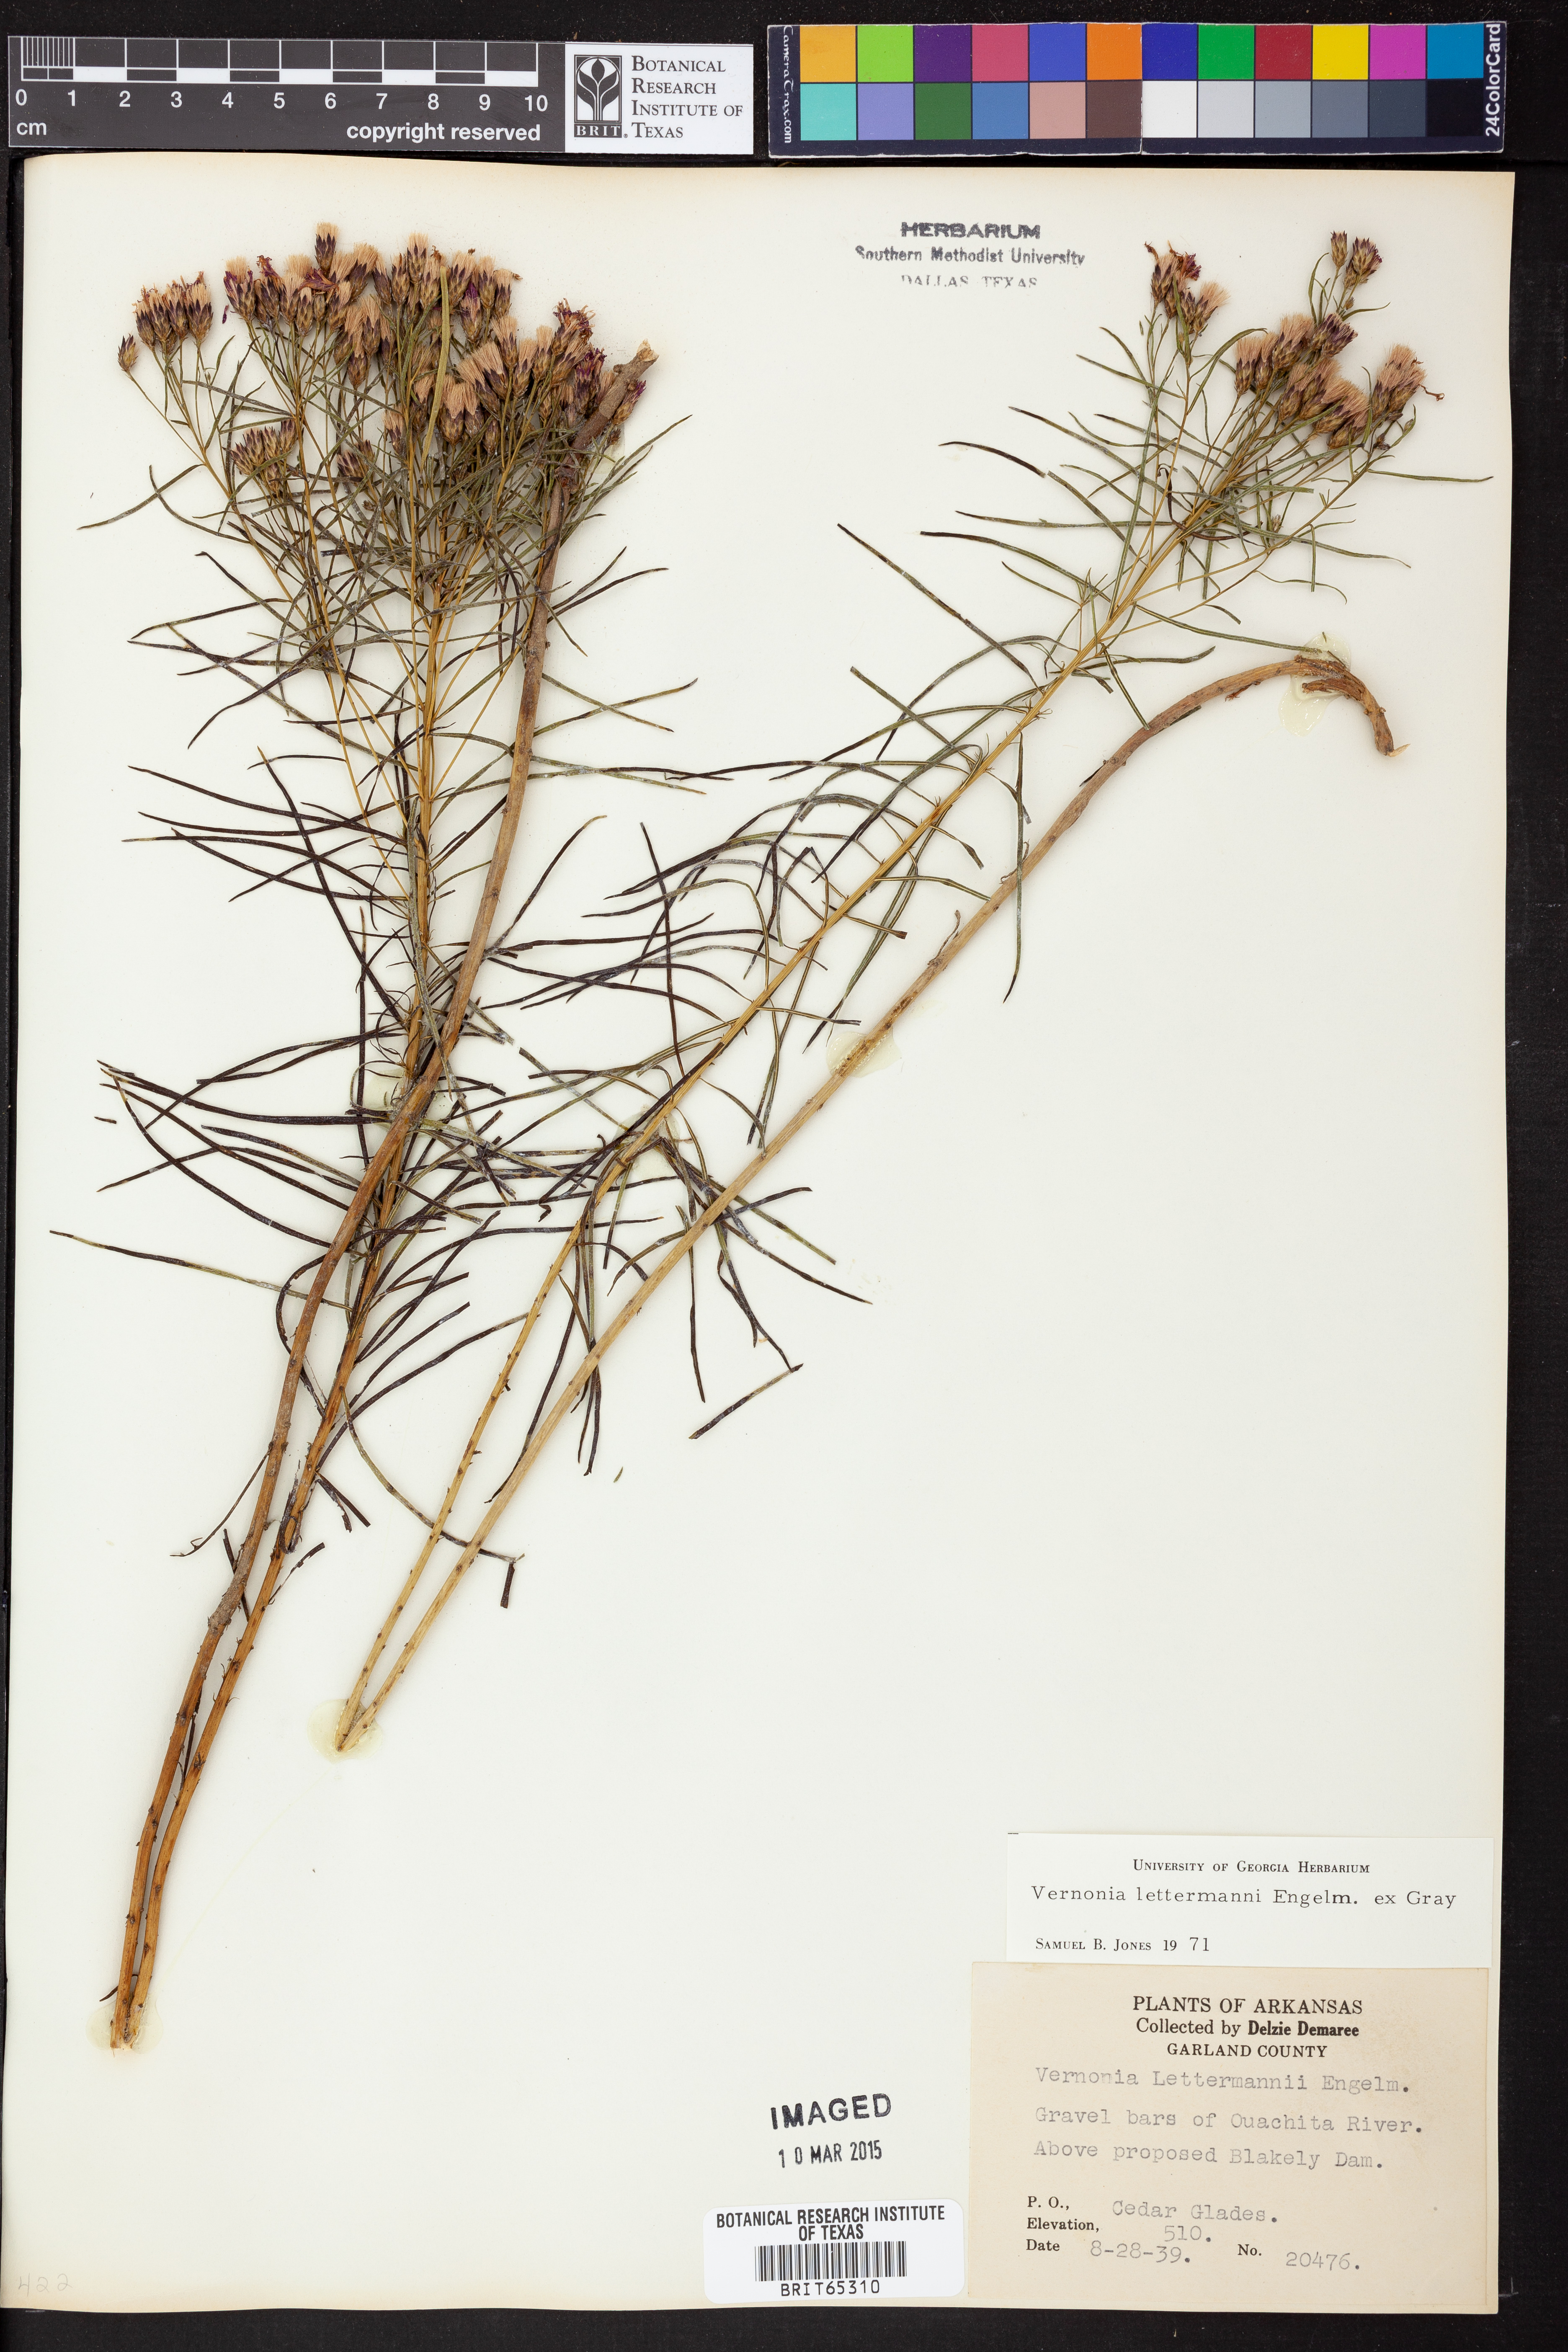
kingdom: Plantae
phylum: Tracheophyta
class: Magnoliopsida
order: Asterales
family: Asteraceae
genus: Vernonia
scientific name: Vernonia lettermannii
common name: Lettermann's ironweed
